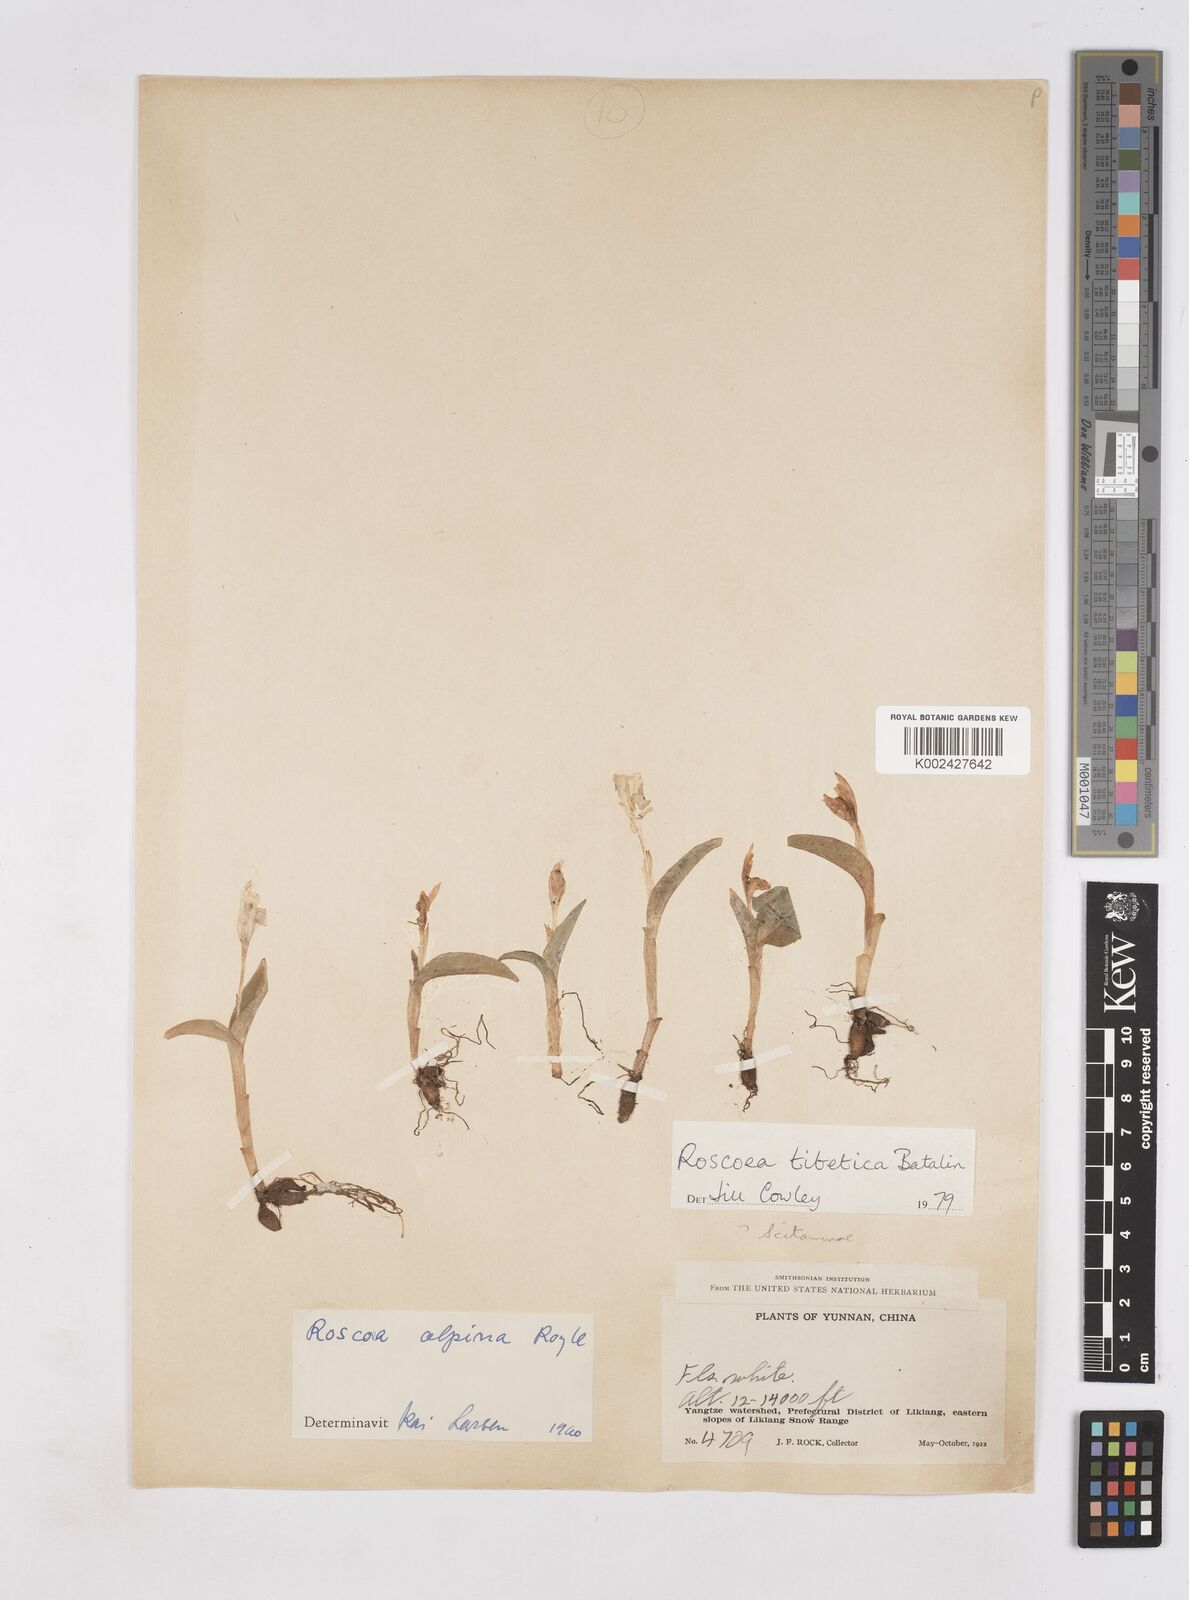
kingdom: Plantae
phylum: Tracheophyta
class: Liliopsida
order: Zingiberales
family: Zingiberaceae
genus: Roscoea
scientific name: Roscoea tibetica
